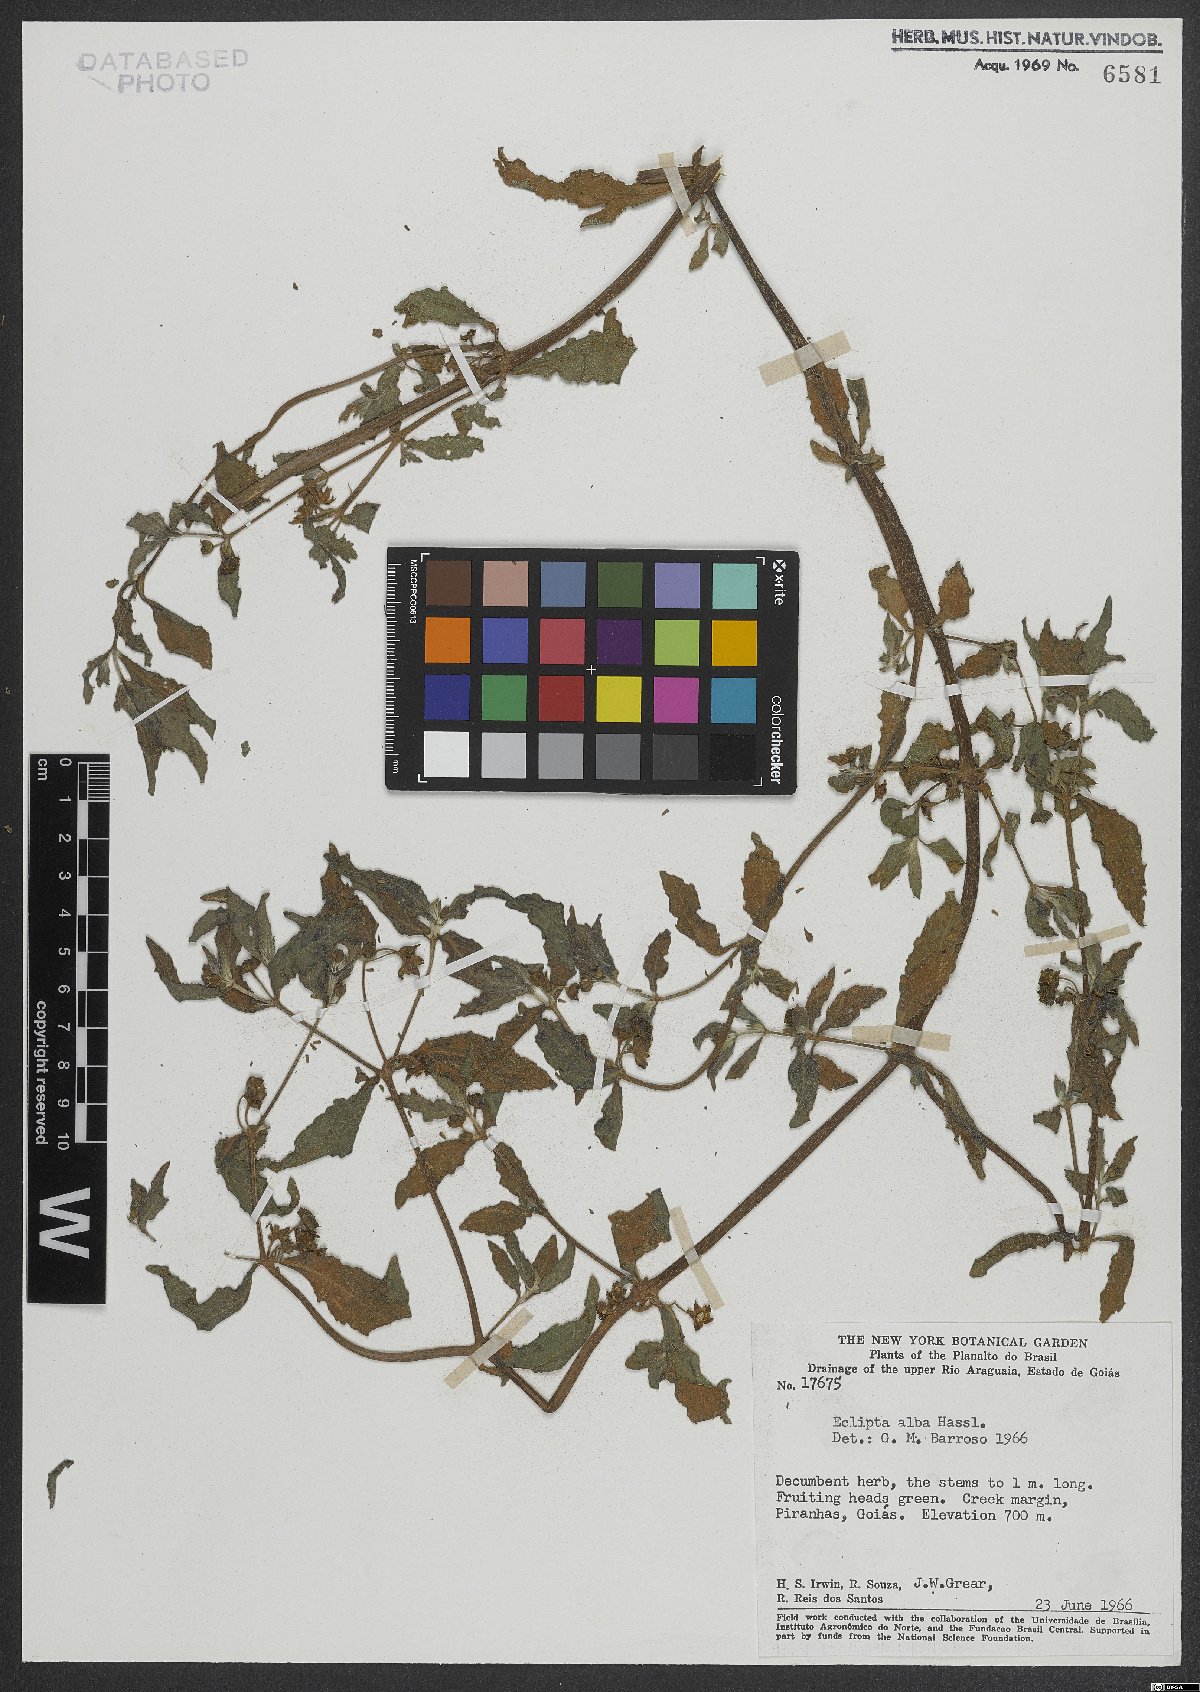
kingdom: Plantae
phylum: Tracheophyta
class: Magnoliopsida
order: Asterales
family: Asteraceae
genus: Eclipta
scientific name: Eclipta alba
